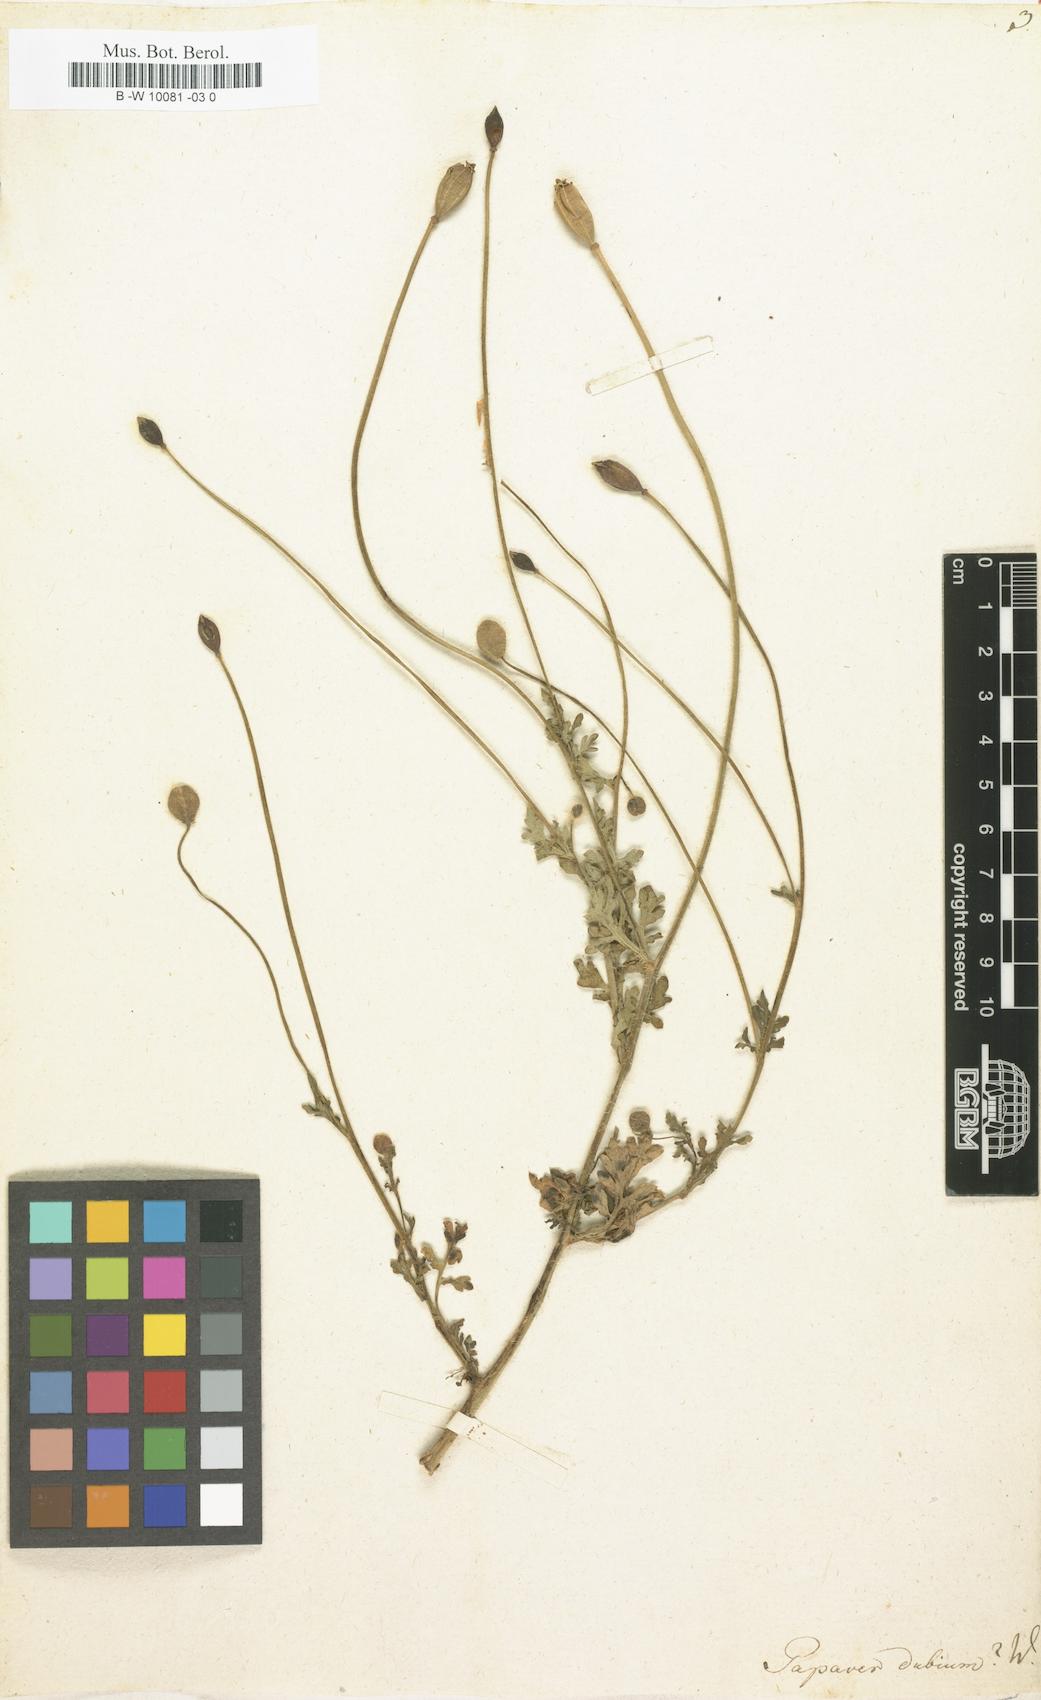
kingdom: Plantae
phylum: Tracheophyta
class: Magnoliopsida
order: Ranunculales
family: Papaveraceae
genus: Papaver
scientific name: Papaver dubium
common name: Long-headed poppy
